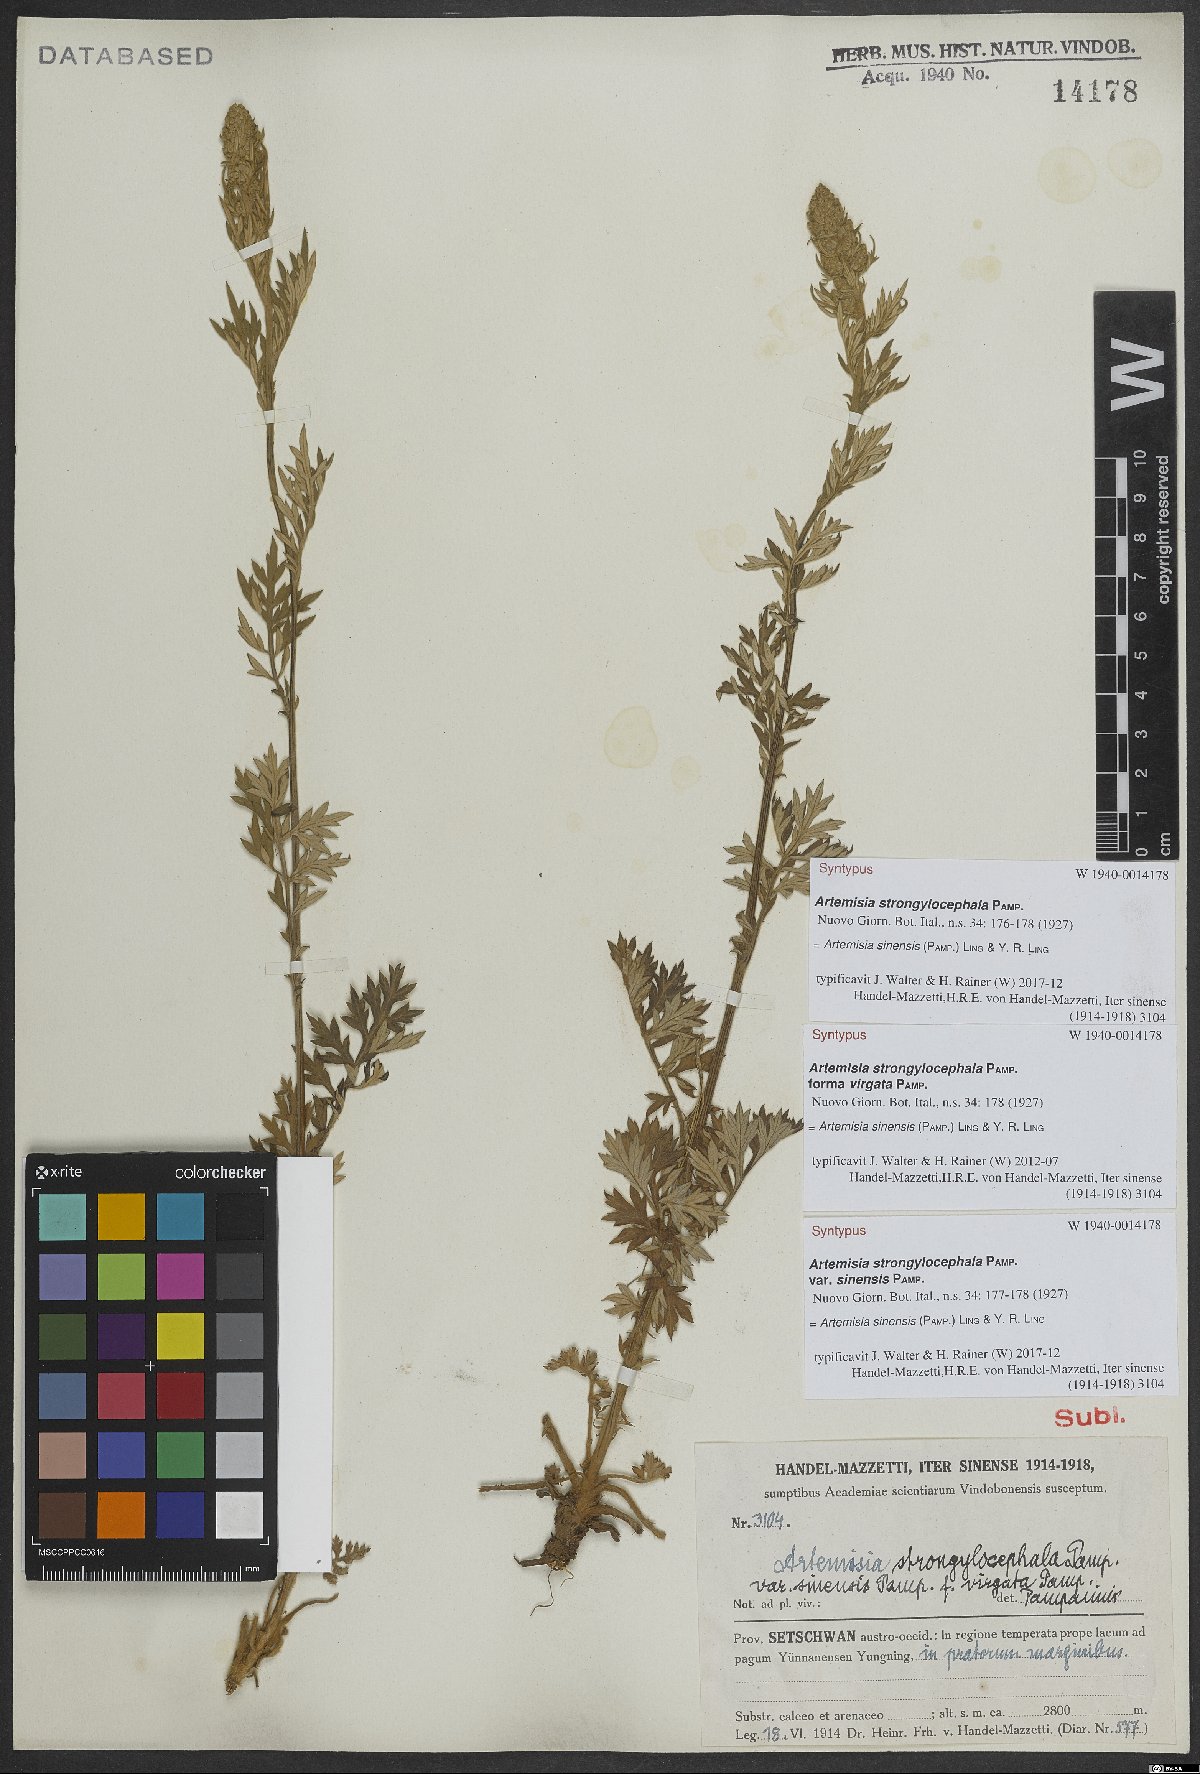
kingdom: Plantae
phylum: Tracheophyta
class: Magnoliopsida
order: Asterales
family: Asteraceae
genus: Artemisia
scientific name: Artemisia sinensis
